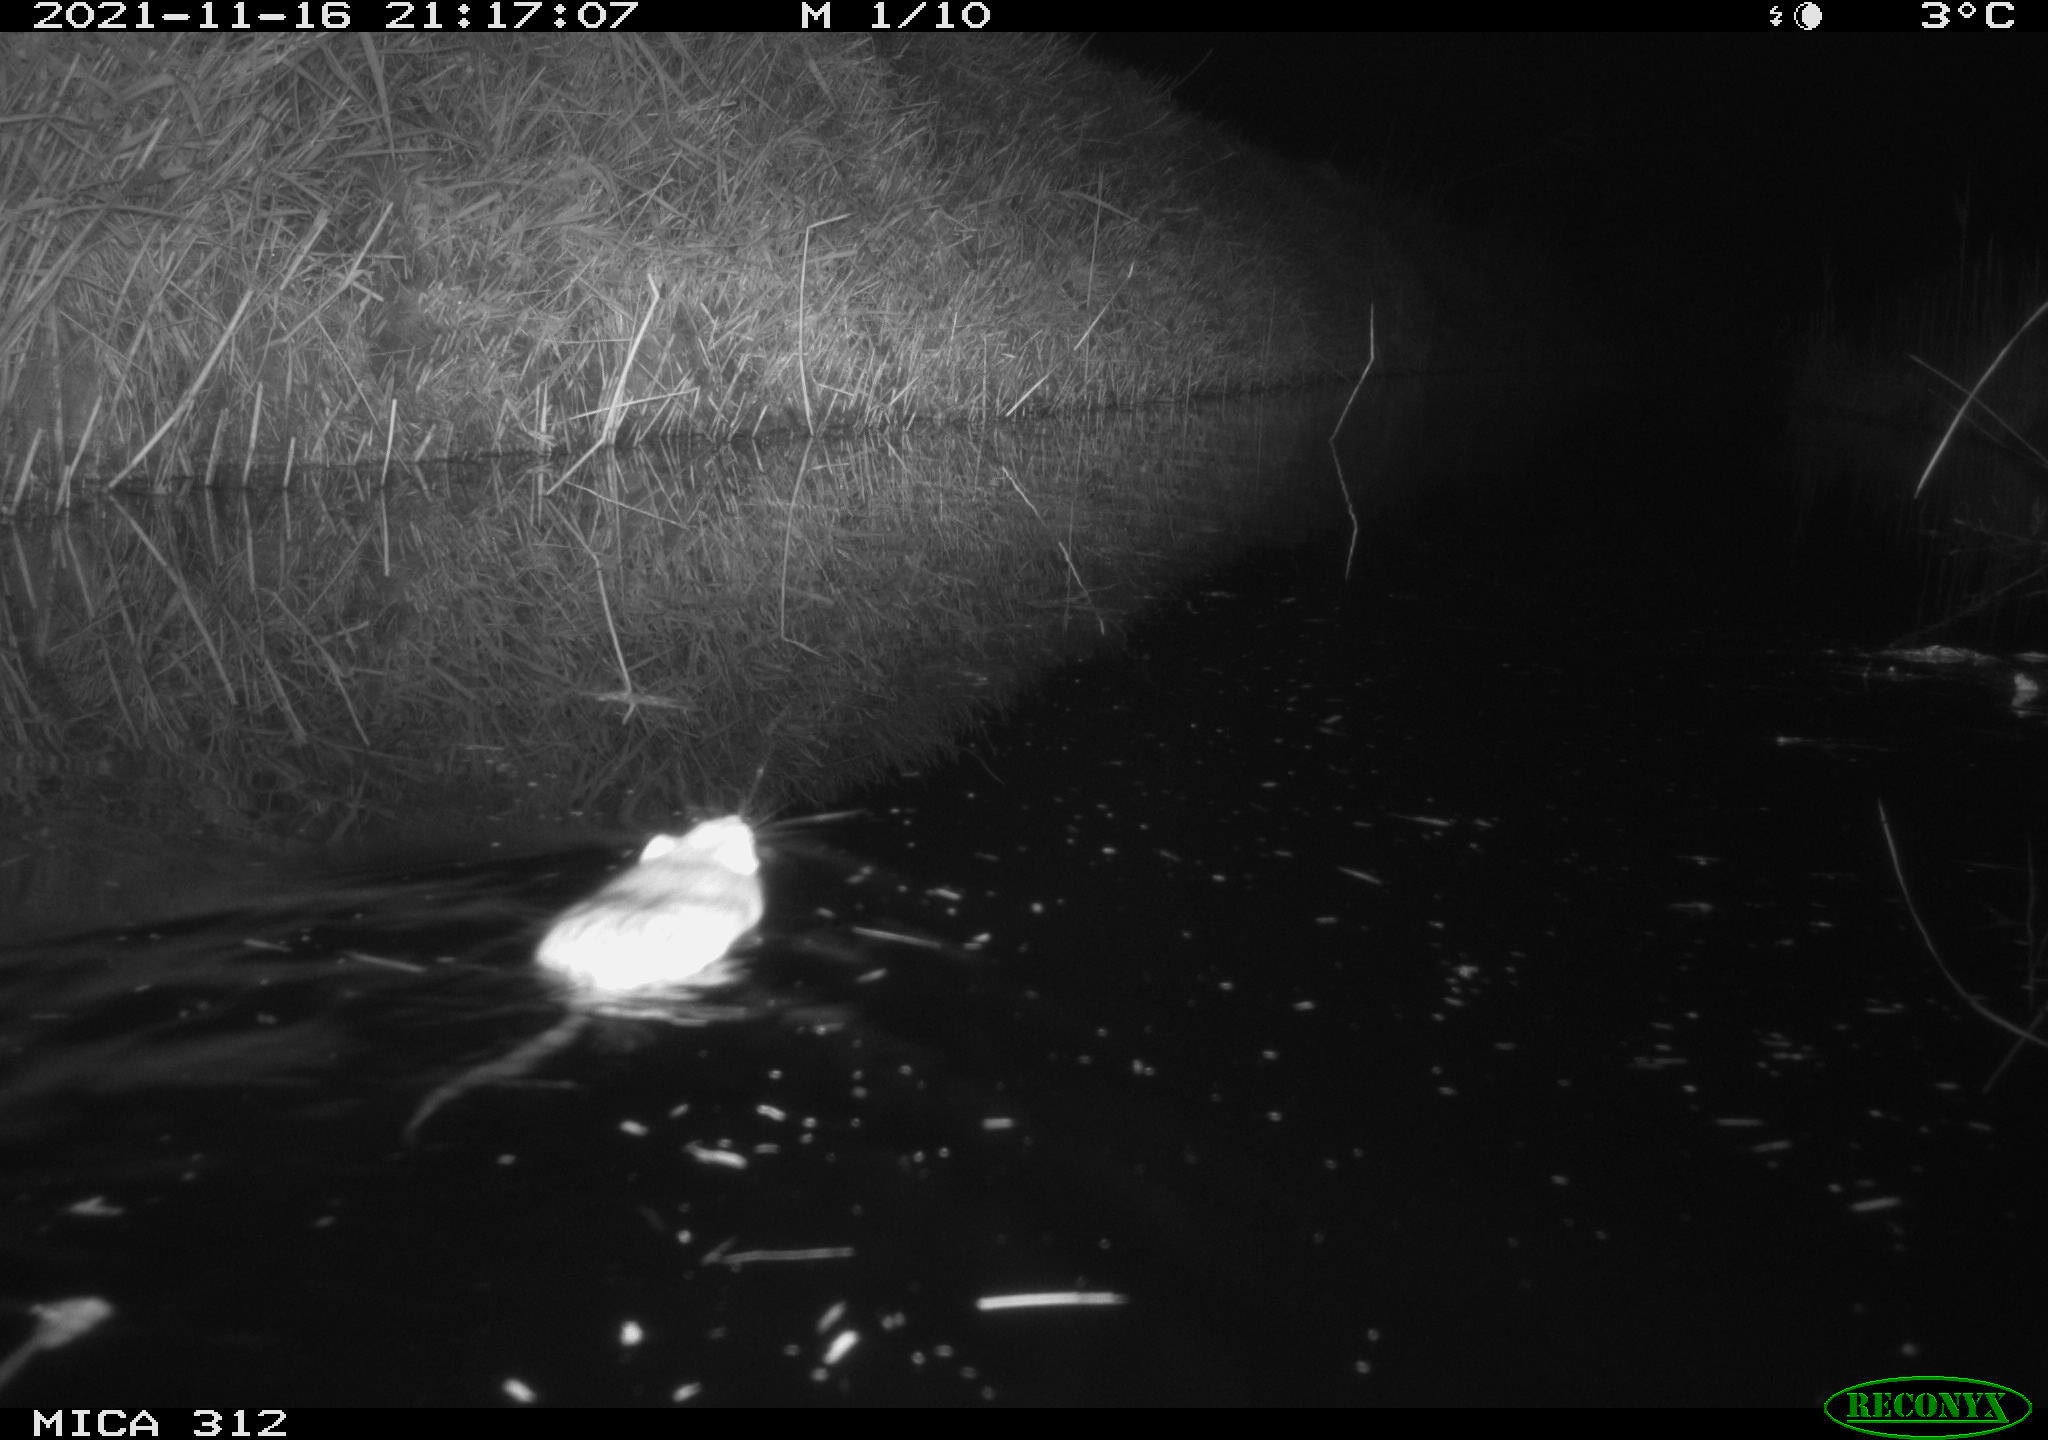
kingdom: Animalia
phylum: Chordata
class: Mammalia
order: Rodentia
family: Muridae
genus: Rattus
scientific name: Rattus norvegicus
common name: Brown rat
